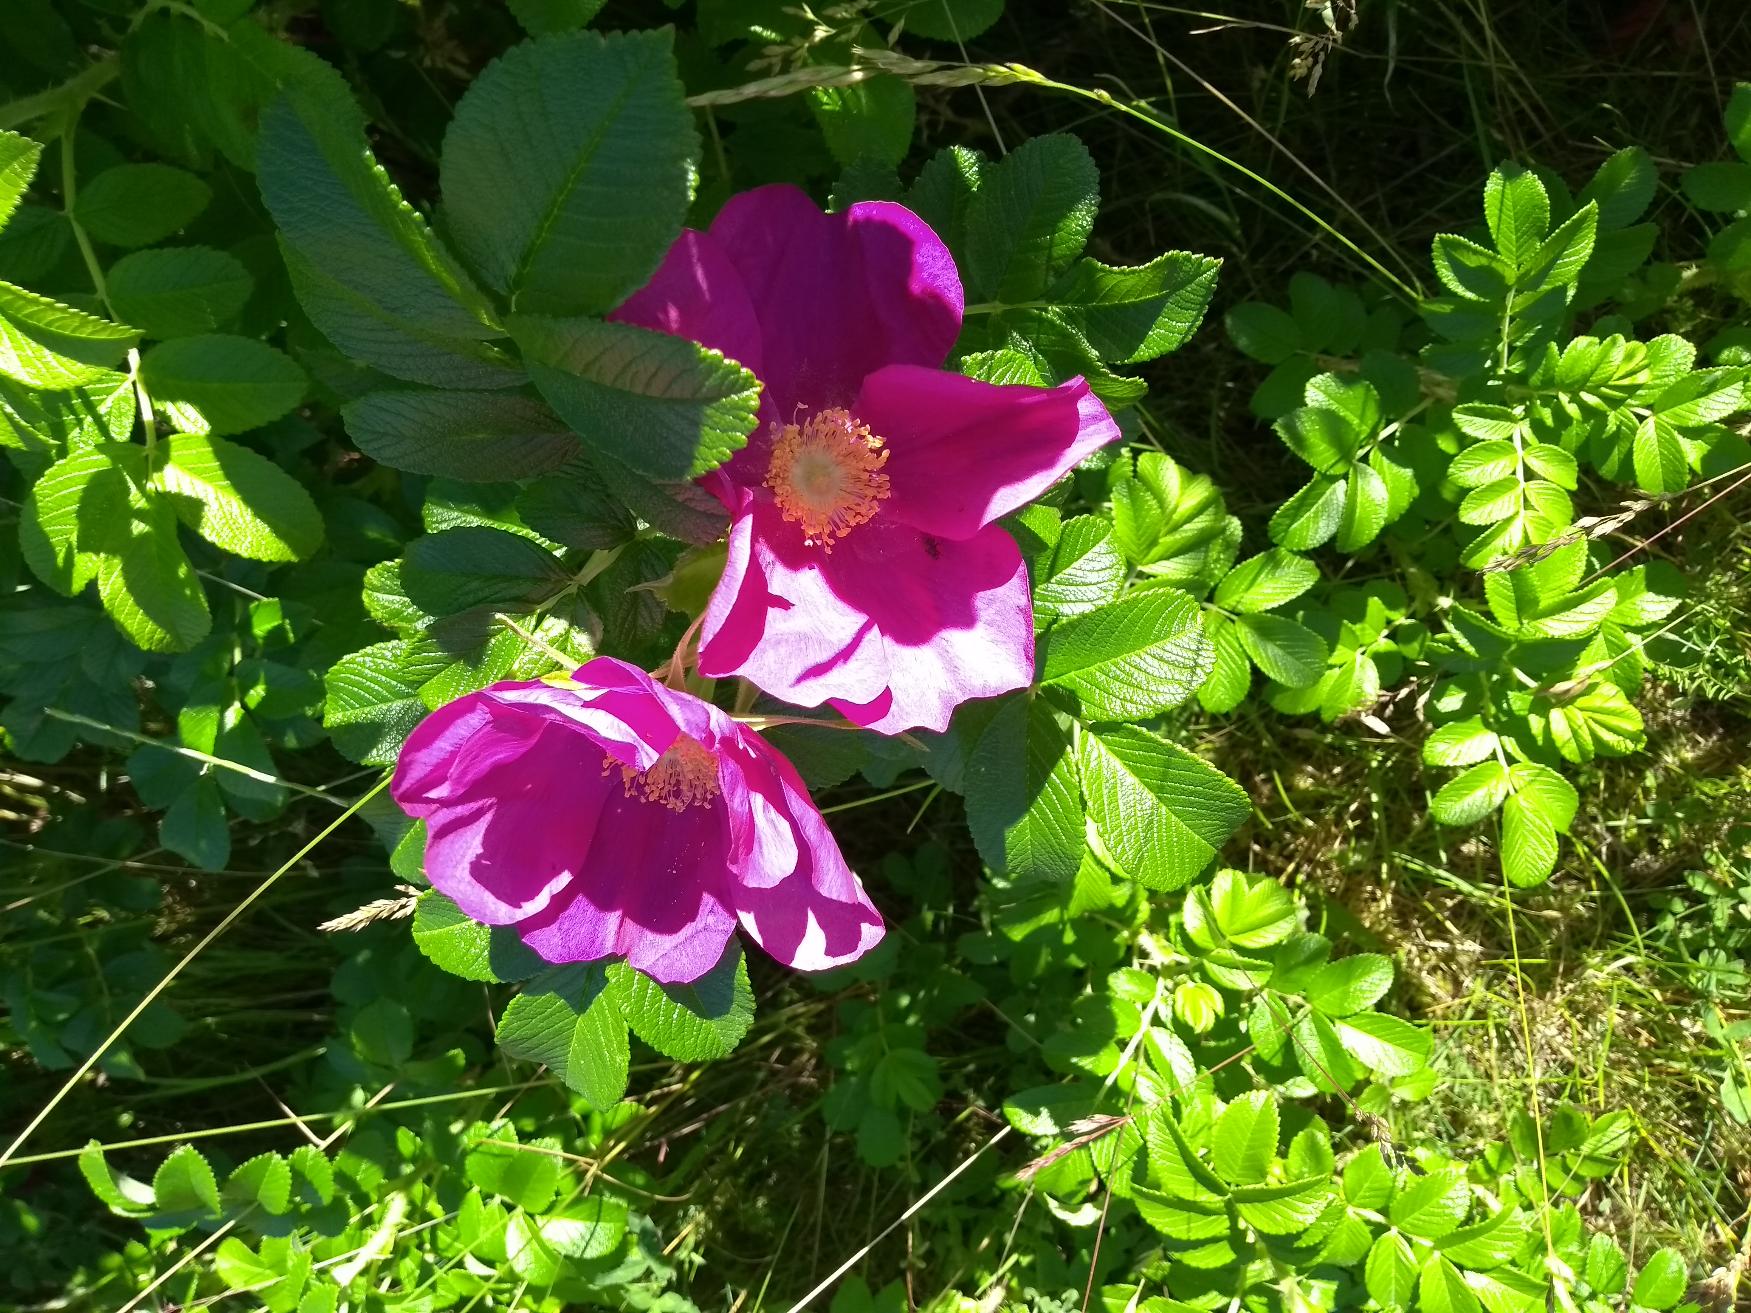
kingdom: Plantae
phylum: Tracheophyta
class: Magnoliopsida
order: Rosales
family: Rosaceae
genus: Rosa
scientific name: Rosa rugosa
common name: Rynket rose
